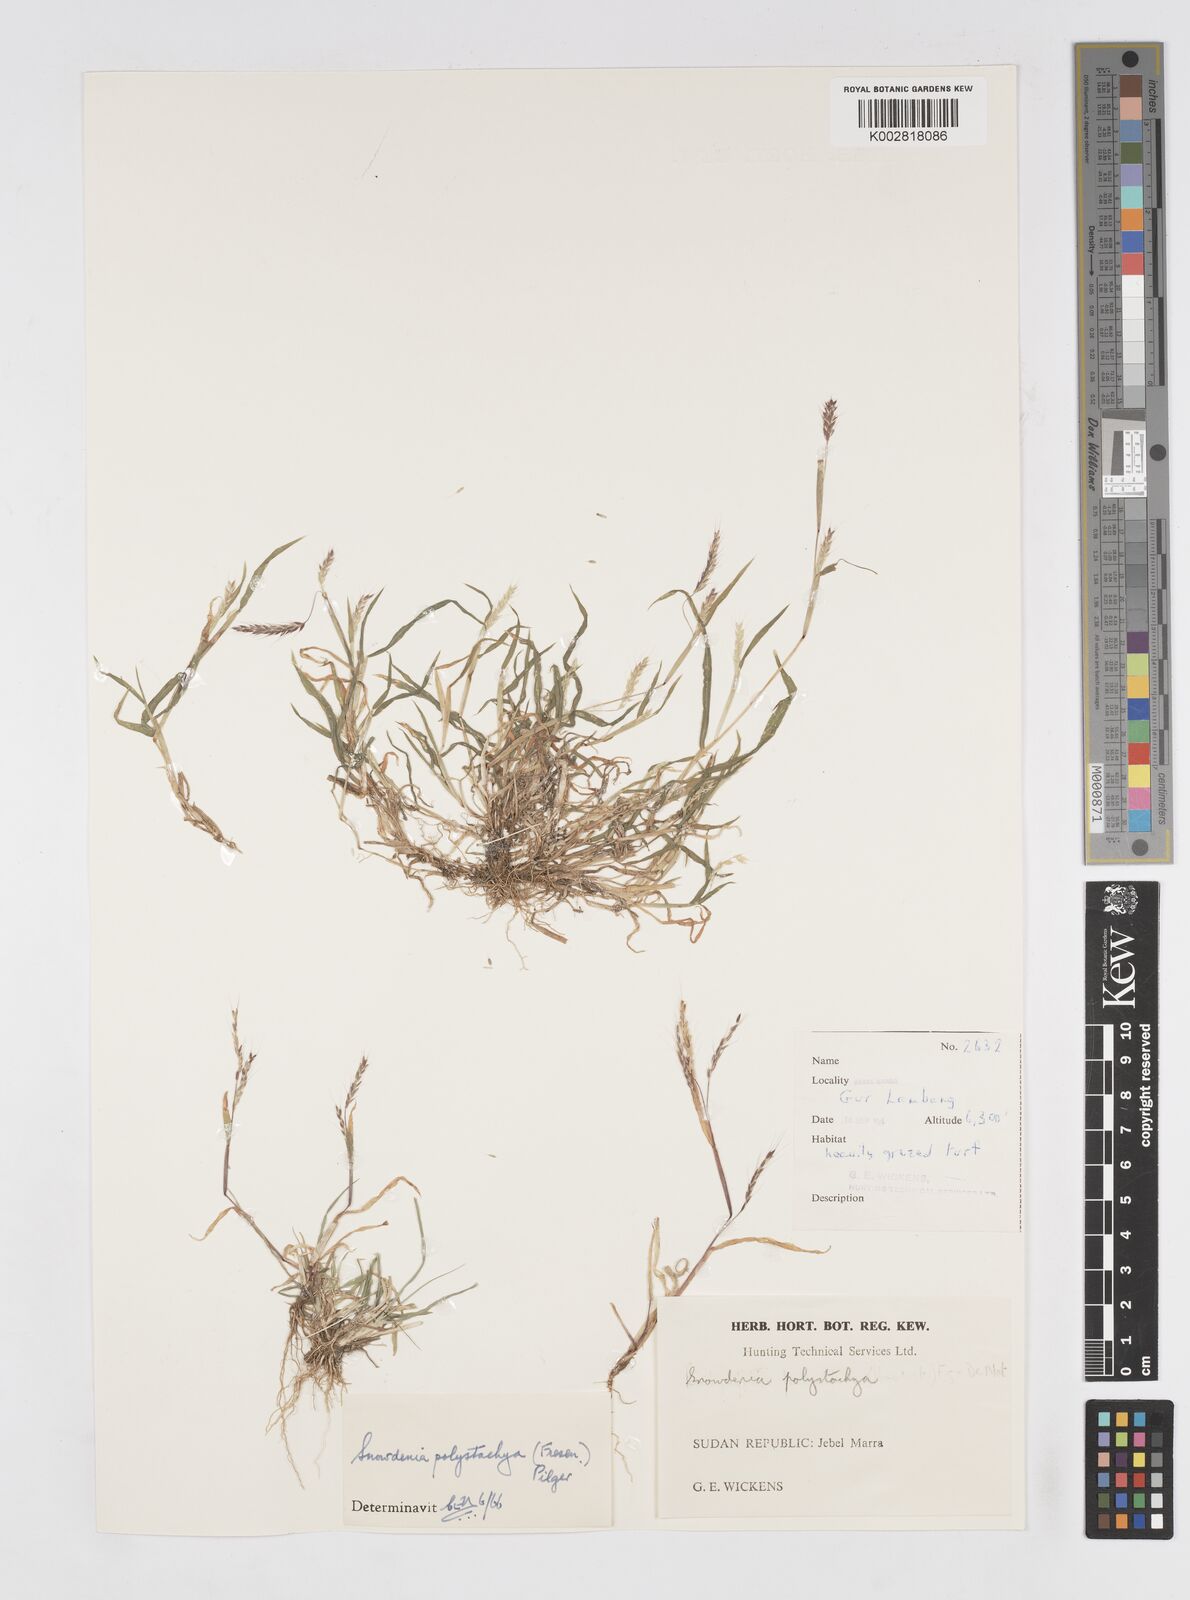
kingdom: Plantae
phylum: Tracheophyta
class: Liliopsida
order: Poales
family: Poaceae
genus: Snowdenia
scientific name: Snowdenia polystachya
